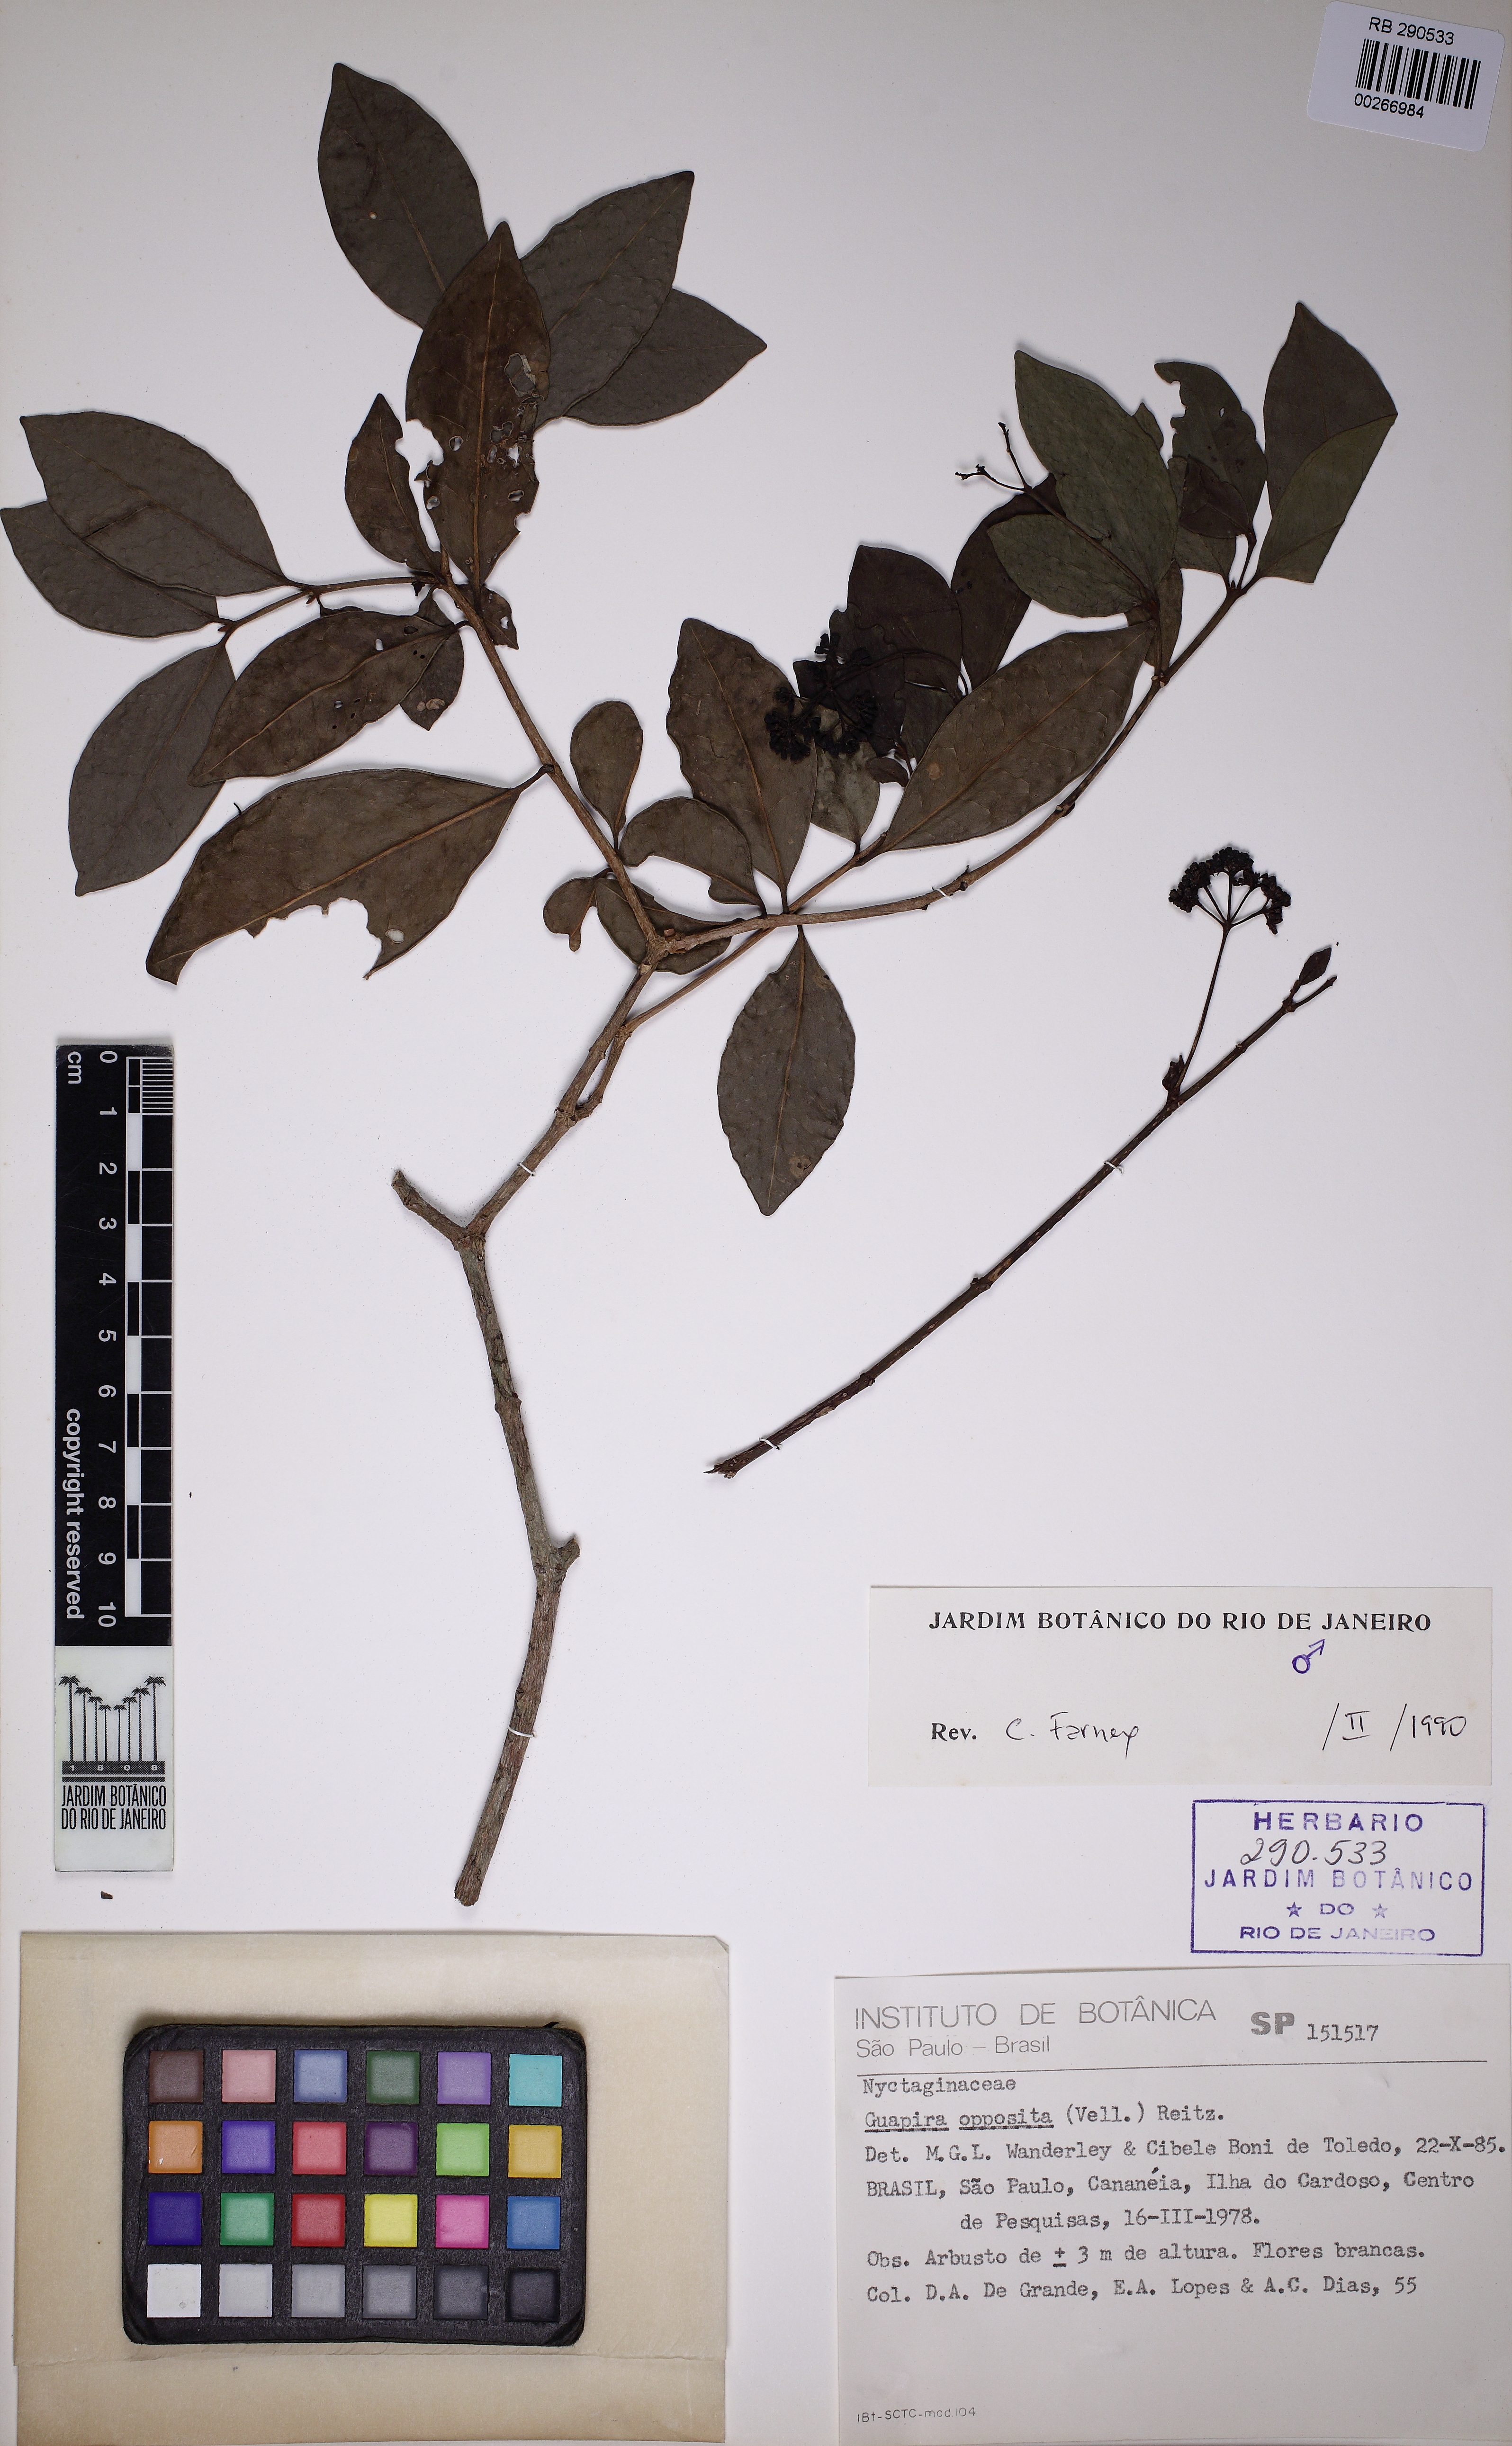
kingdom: Plantae
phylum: Tracheophyta
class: Magnoliopsida
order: Caryophyllales
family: Nyctaginaceae
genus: Guapira
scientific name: Guapira opposita
